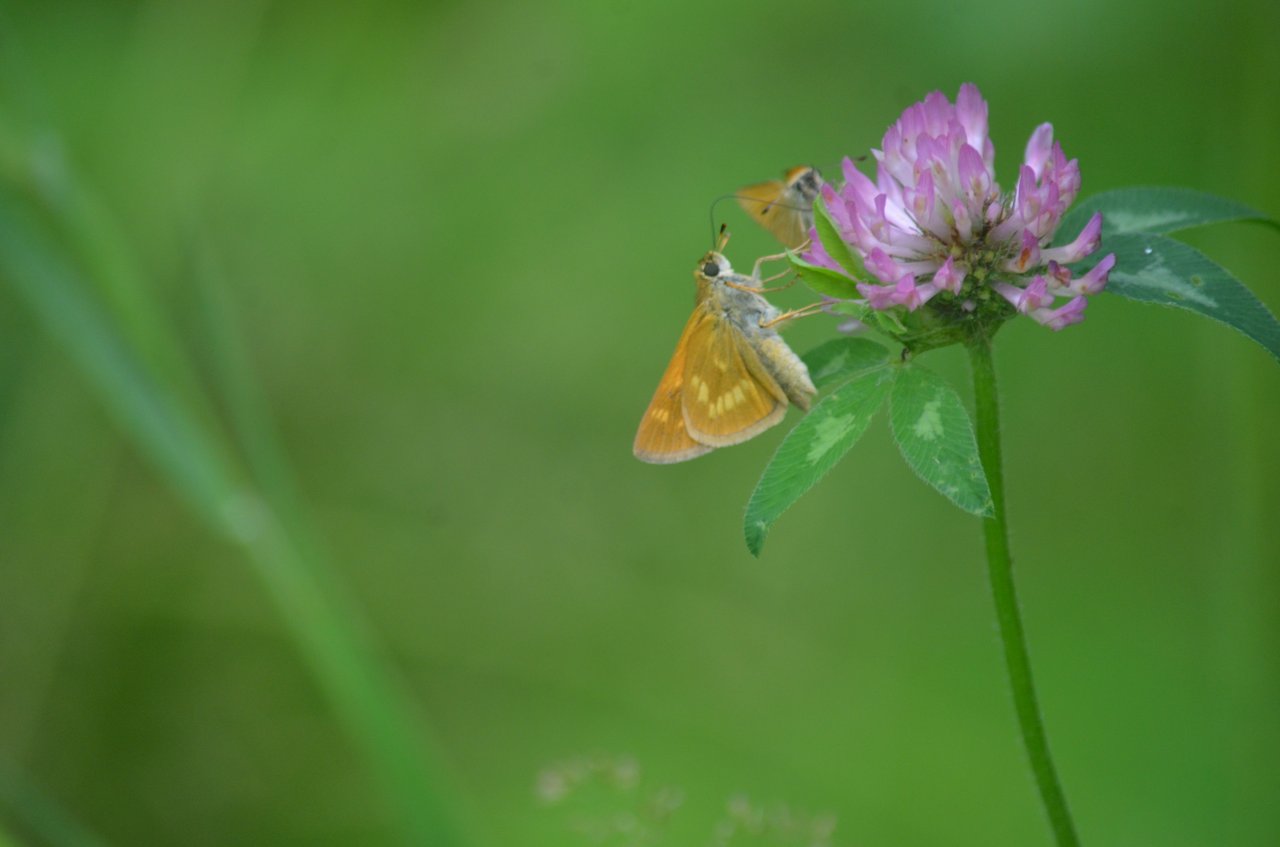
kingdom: Animalia
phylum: Arthropoda
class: Insecta
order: Lepidoptera
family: Hesperiidae
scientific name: Hesperiidae
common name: Skippers
